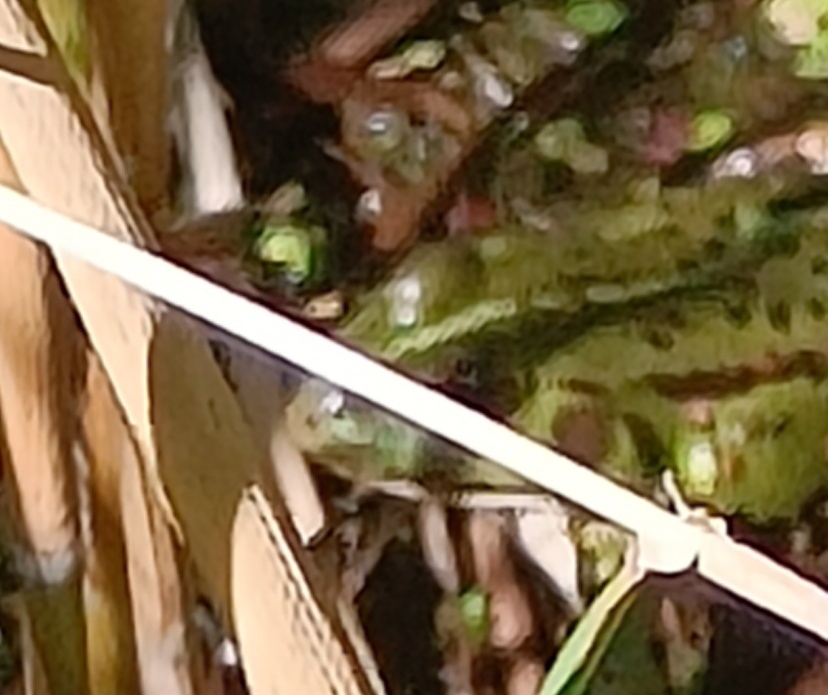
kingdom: Animalia
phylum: Chordata
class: Amphibia
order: Anura
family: Ranidae
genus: Pelophylax
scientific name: Pelophylax lessonae
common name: Grøn frø
